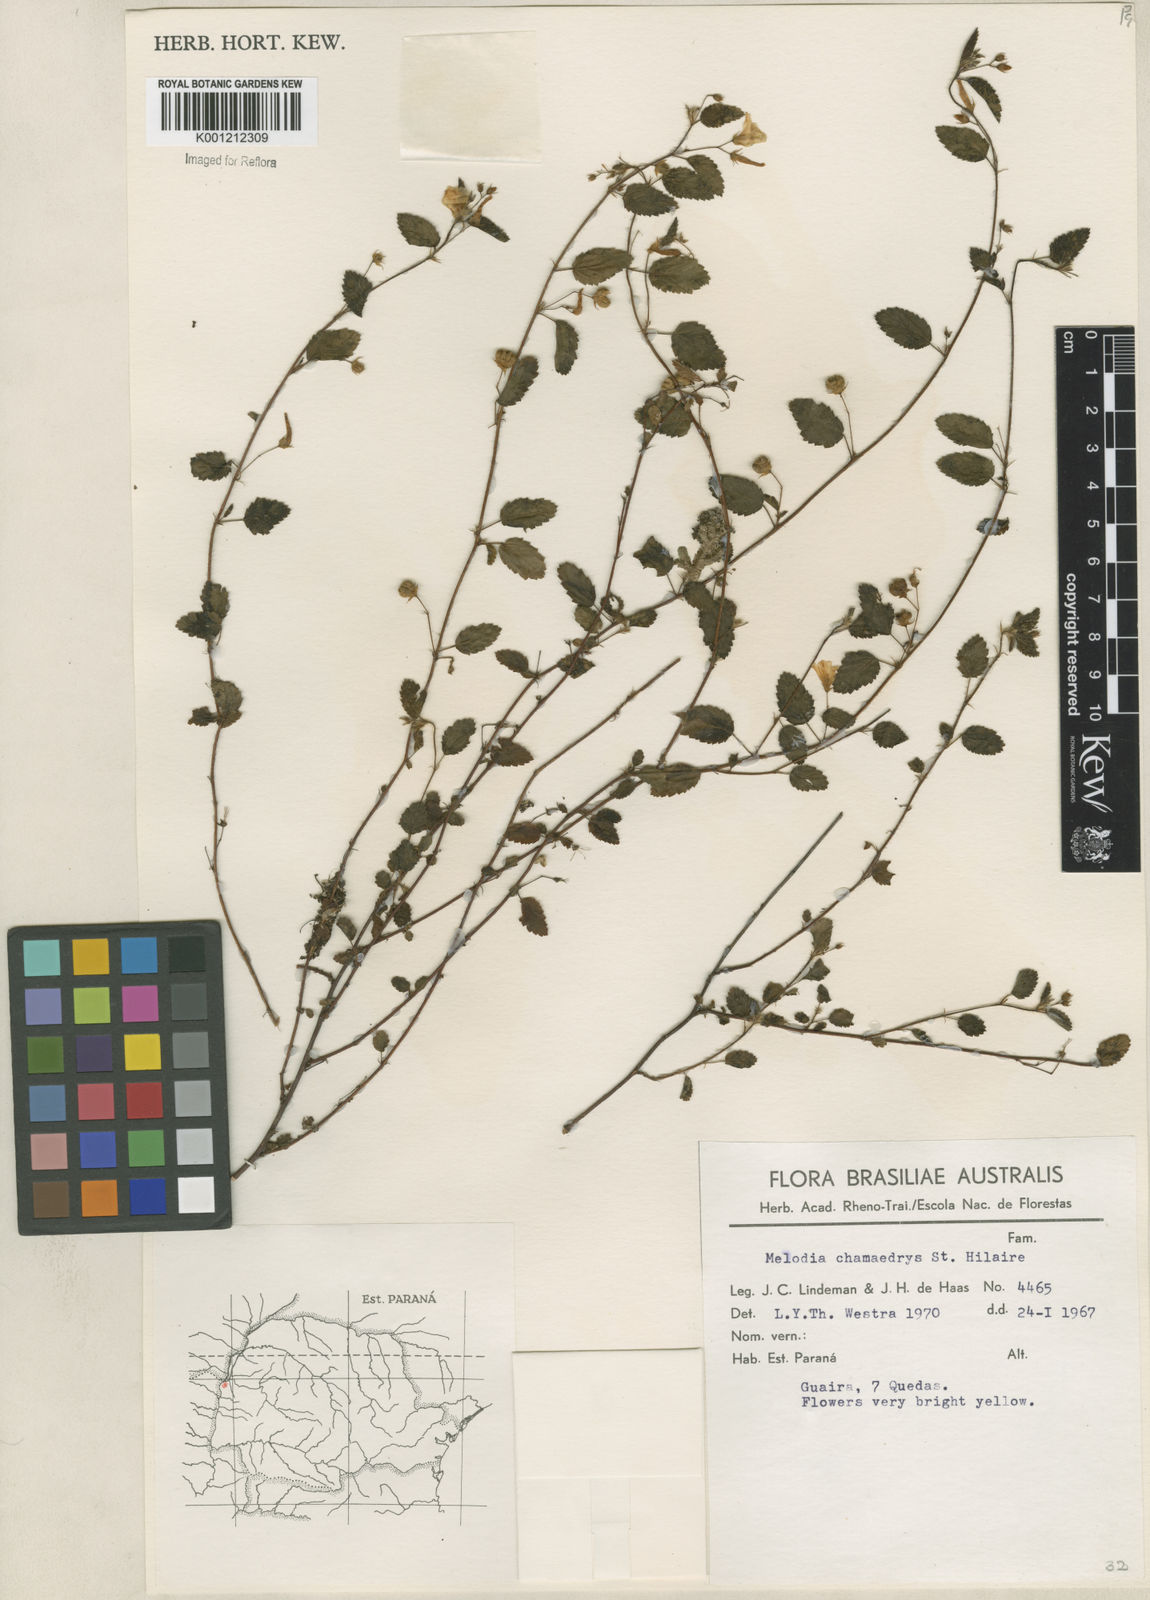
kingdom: Plantae
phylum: Tracheophyta
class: Magnoliopsida
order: Malvales
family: Malvaceae
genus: Melochia
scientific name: Melochia chamaedrys
